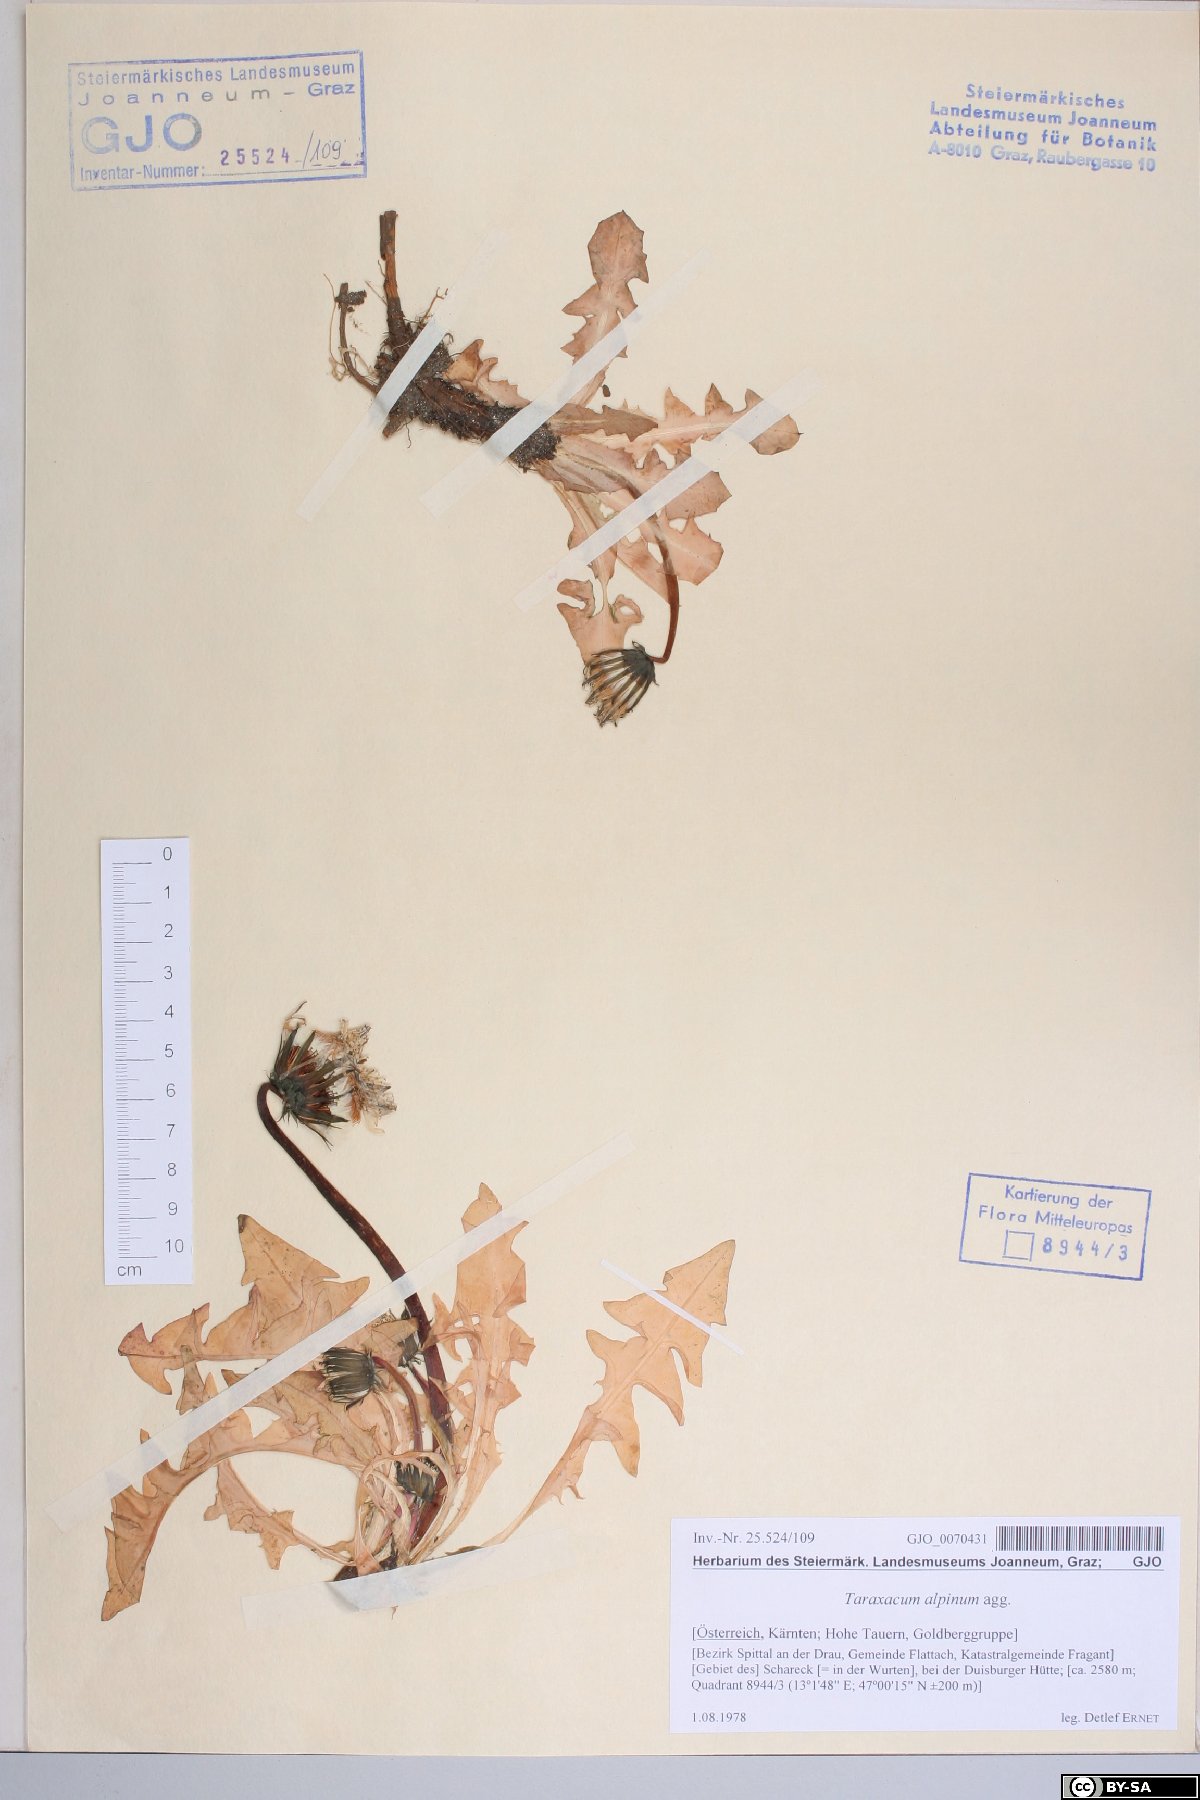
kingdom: Plantae
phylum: Tracheophyta
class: Magnoliopsida
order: Asterales
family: Asteraceae
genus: Taraxacum
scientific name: Taraxacum alpinum
